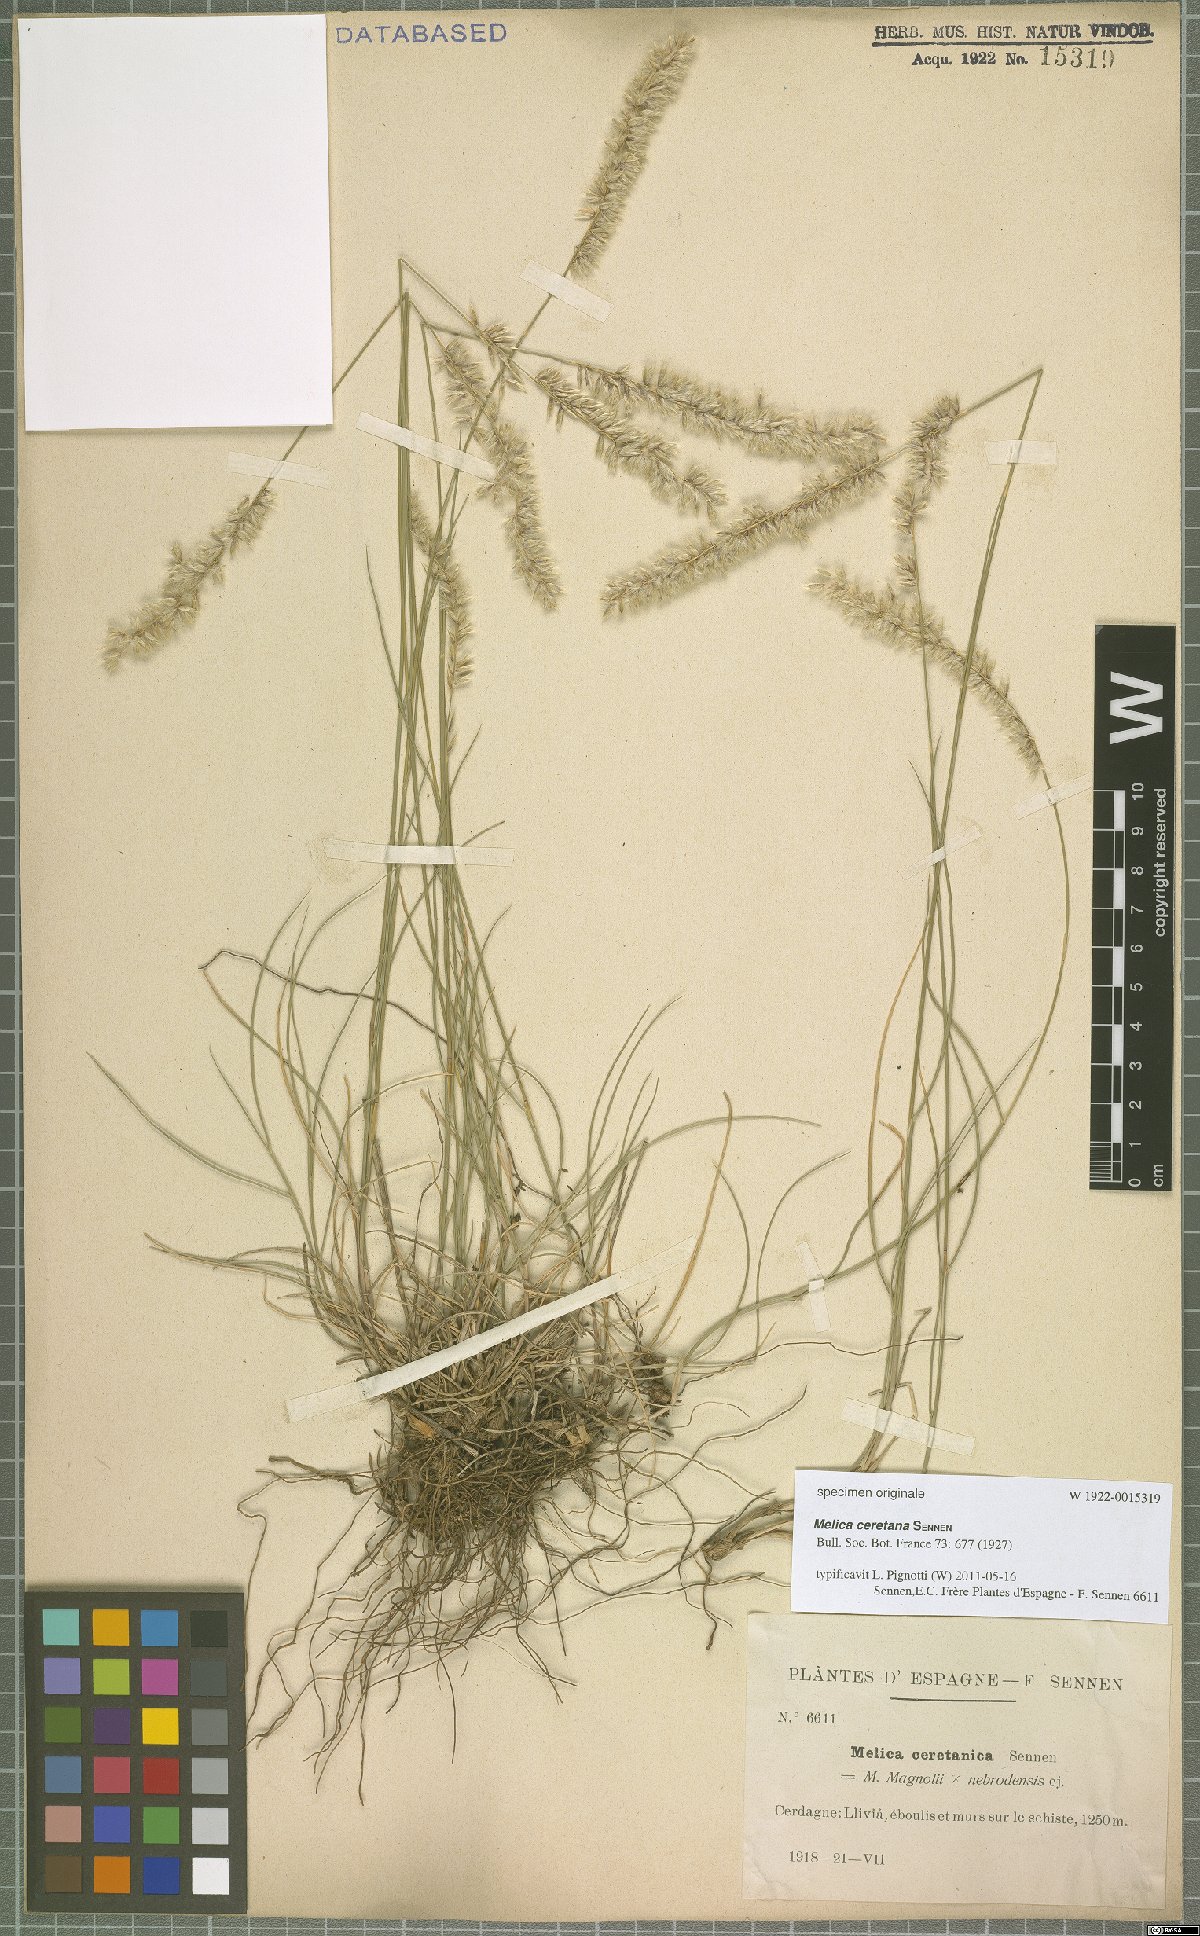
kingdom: Plantae
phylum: Tracheophyta
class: Liliopsida
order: Poales
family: Poaceae
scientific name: Poaceae
